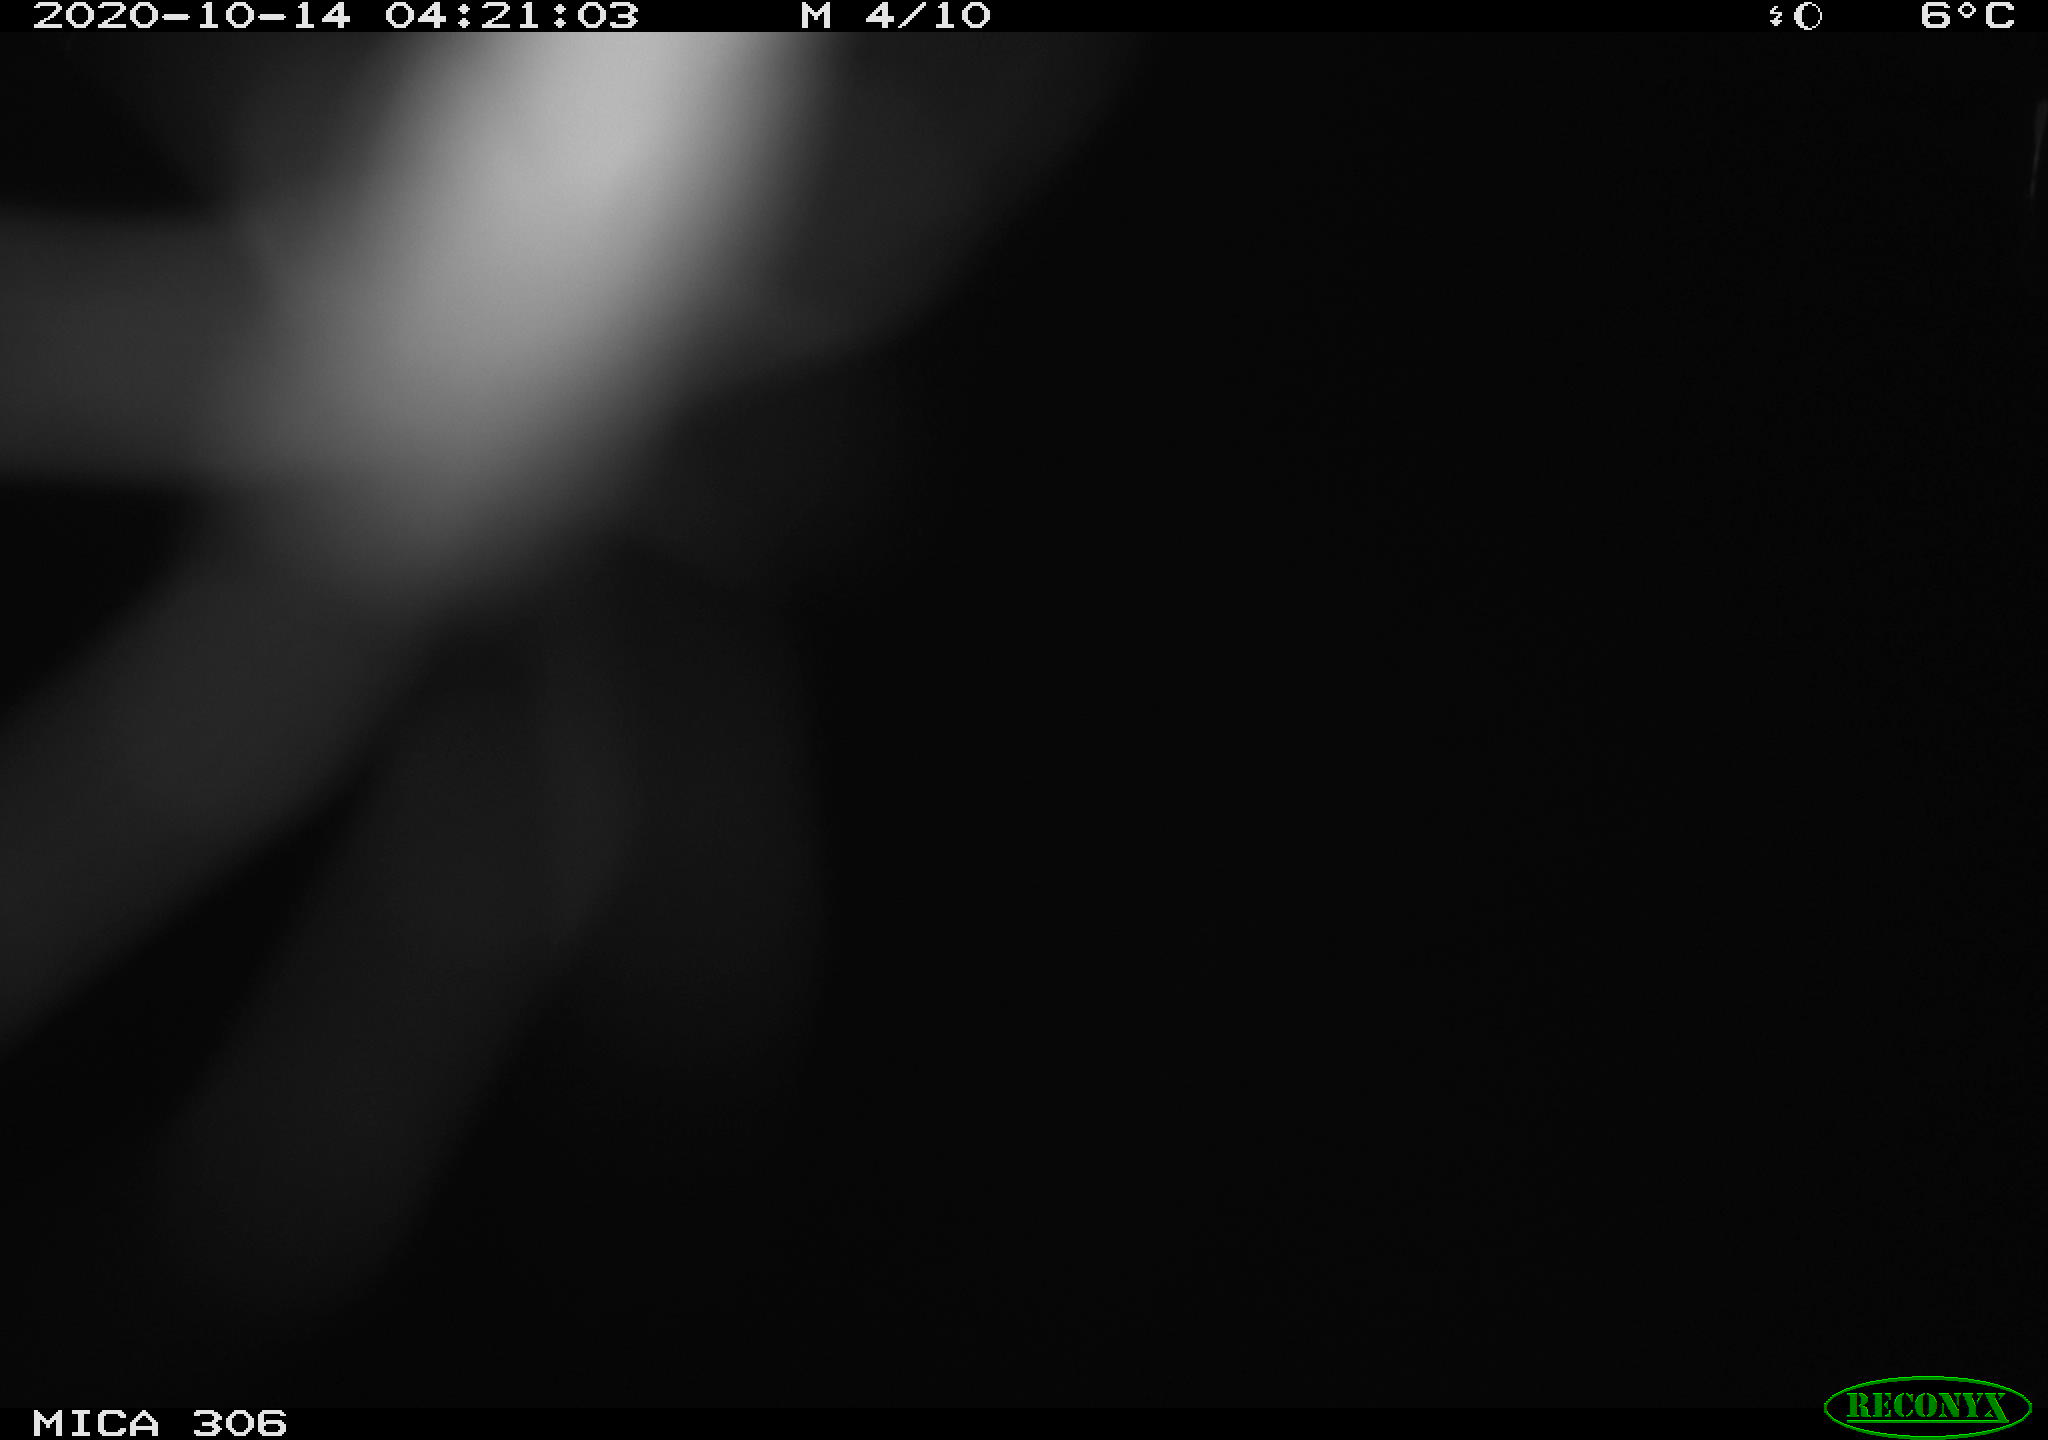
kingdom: Animalia
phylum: Chordata
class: Mammalia
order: Rodentia
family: Cricetidae
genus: Ondatra
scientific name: Ondatra zibethicus
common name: Muskrat
